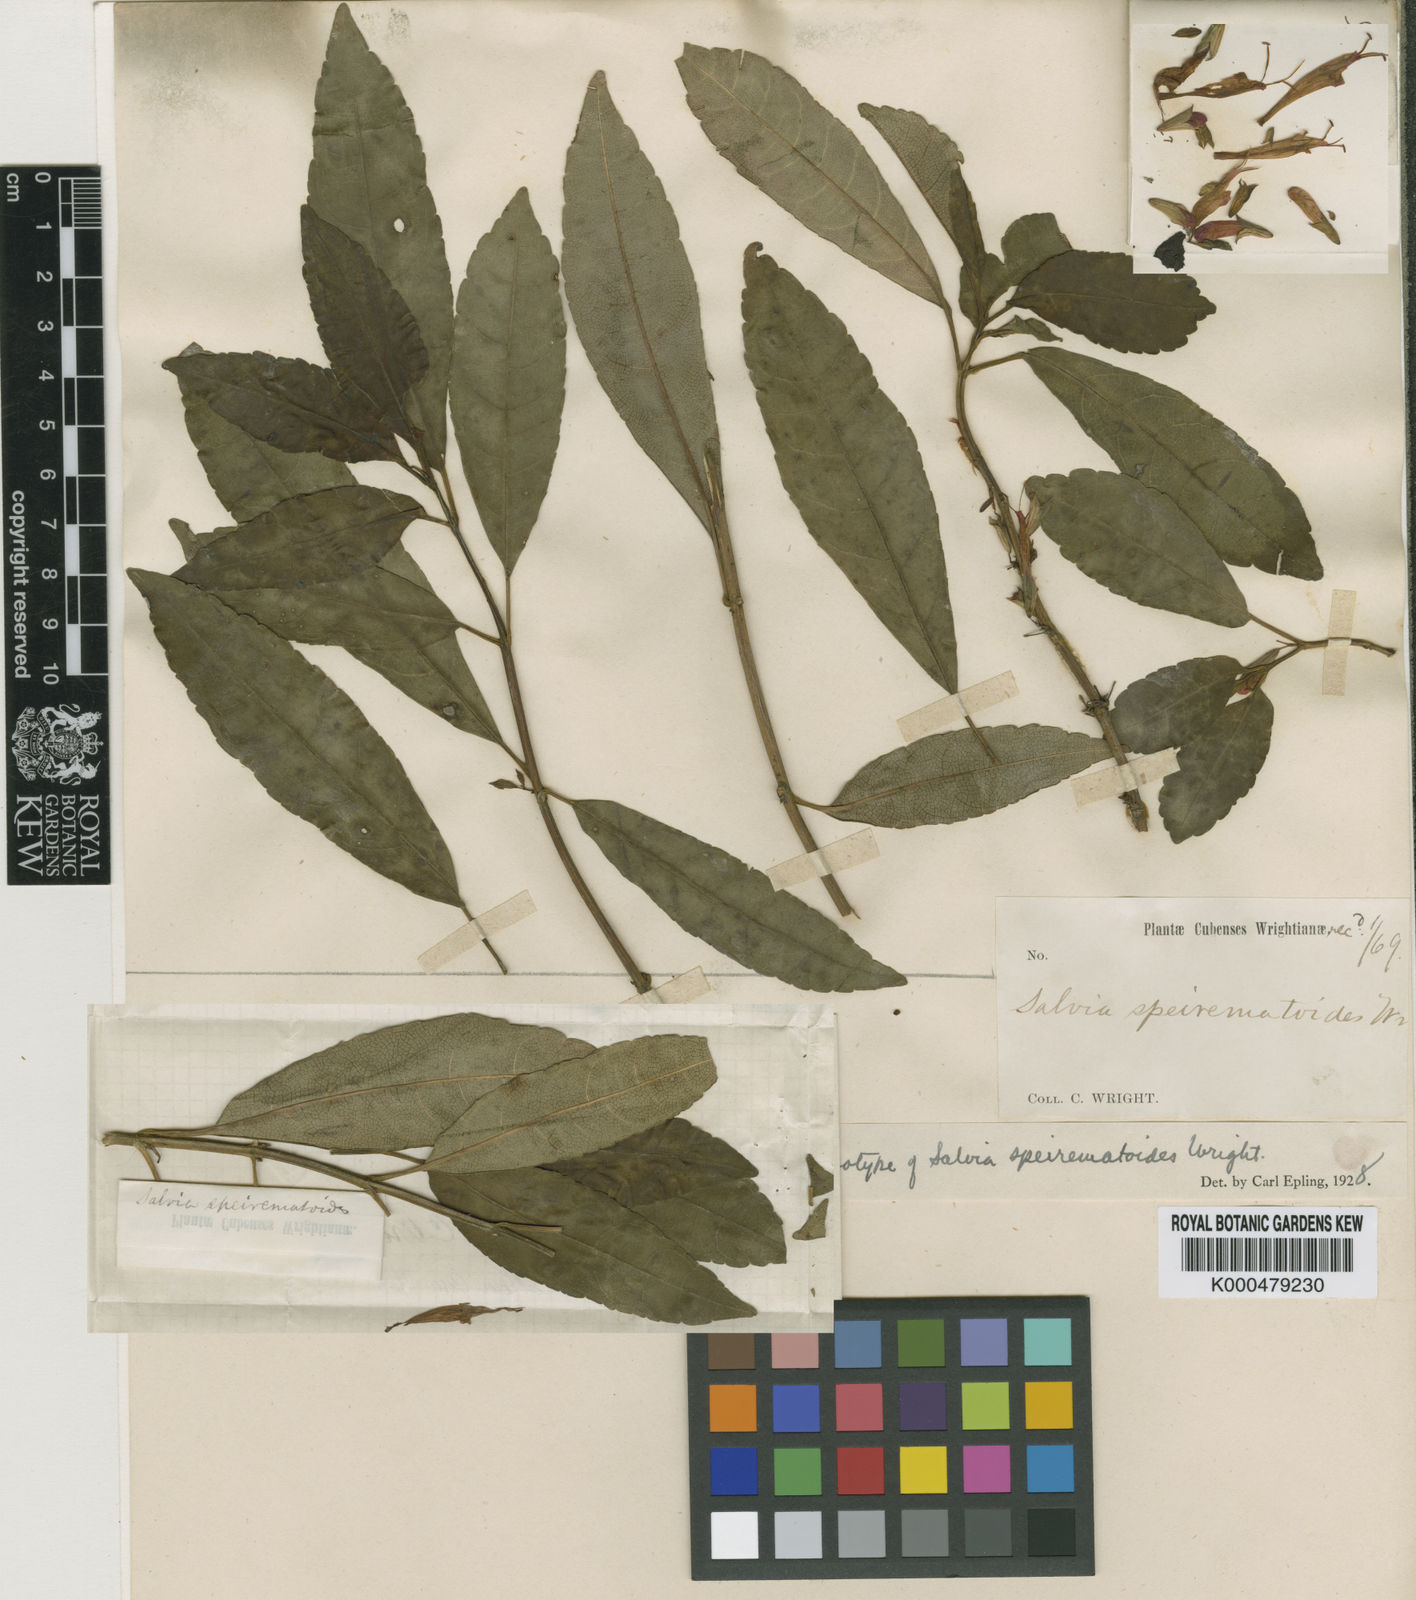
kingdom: Plantae
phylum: Tracheophyta
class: Magnoliopsida
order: Lamiales
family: Lamiaceae
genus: Salvia
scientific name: Salvia speirematoides
